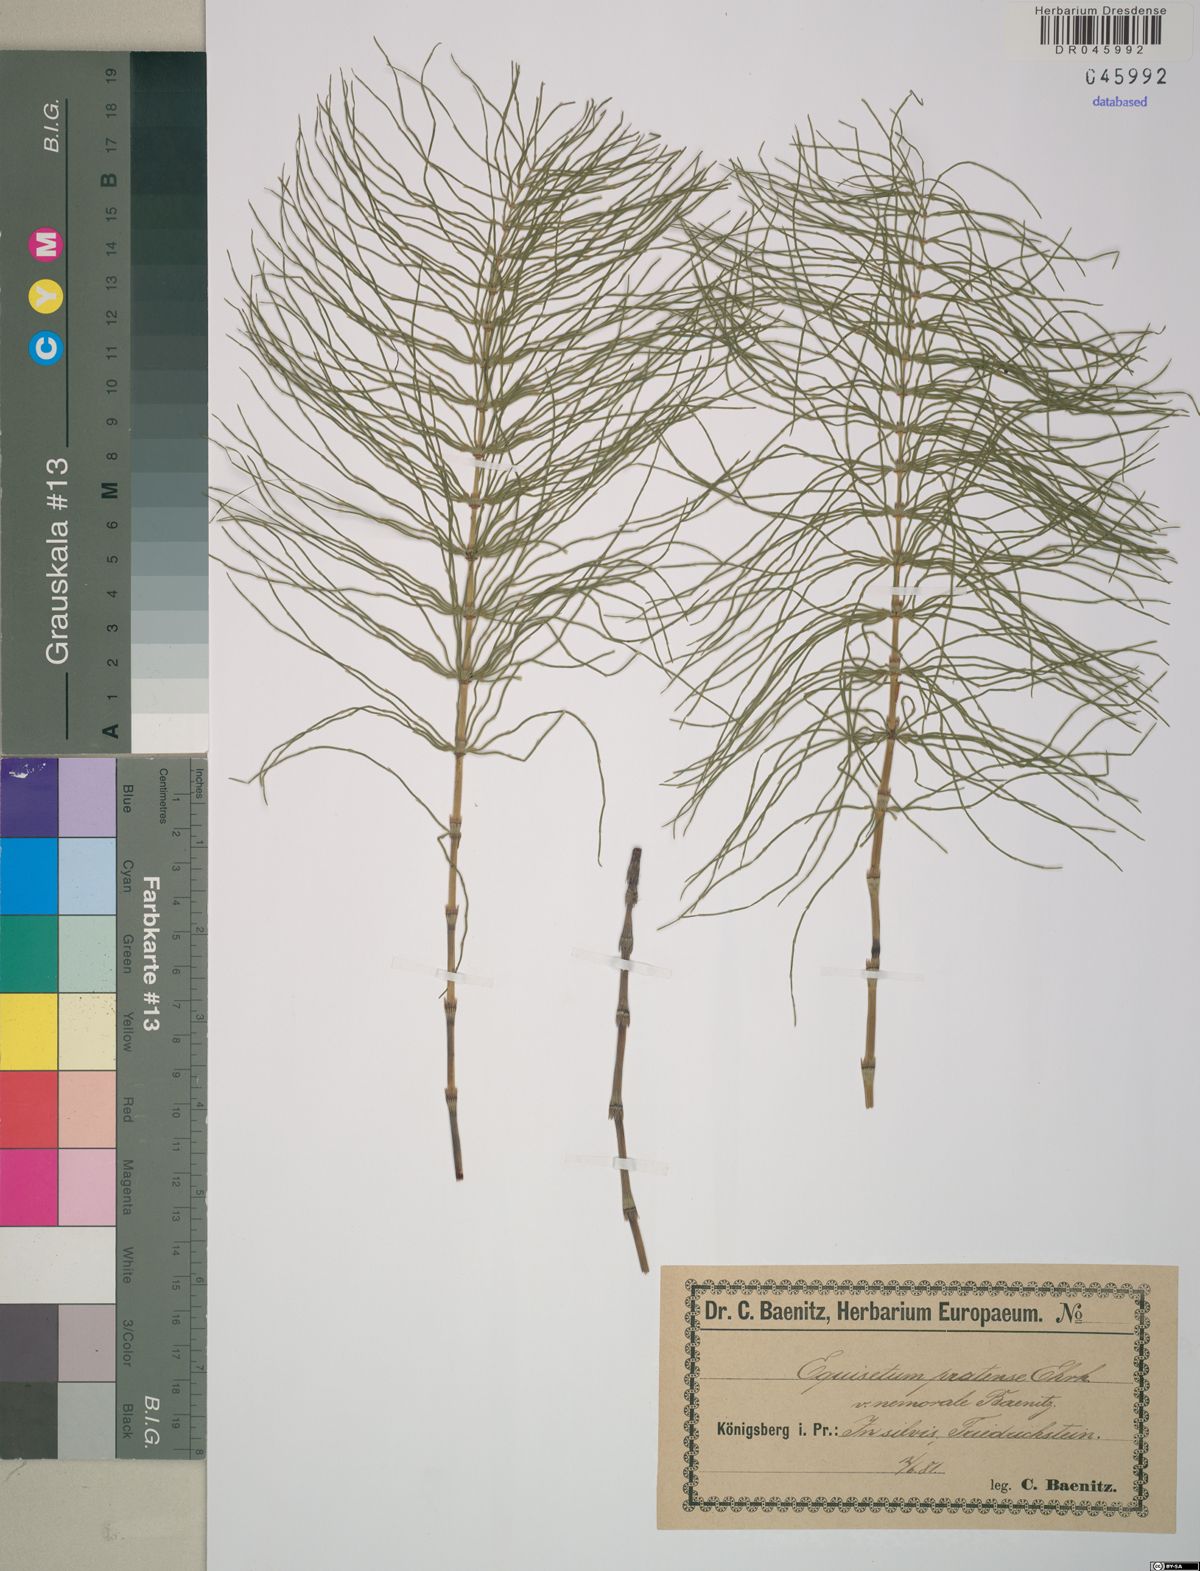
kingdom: Plantae
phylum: Tracheophyta
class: Polypodiopsida
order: Equisetales
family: Equisetaceae
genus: Equisetum
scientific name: Equisetum pratense
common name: Meadow horsetail
